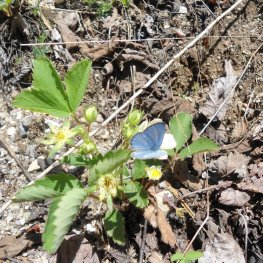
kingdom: Animalia
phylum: Arthropoda
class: Insecta
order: Lepidoptera
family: Lycaenidae
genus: Glaucopsyche
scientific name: Glaucopsyche lygdamus
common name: Silvery Blue
